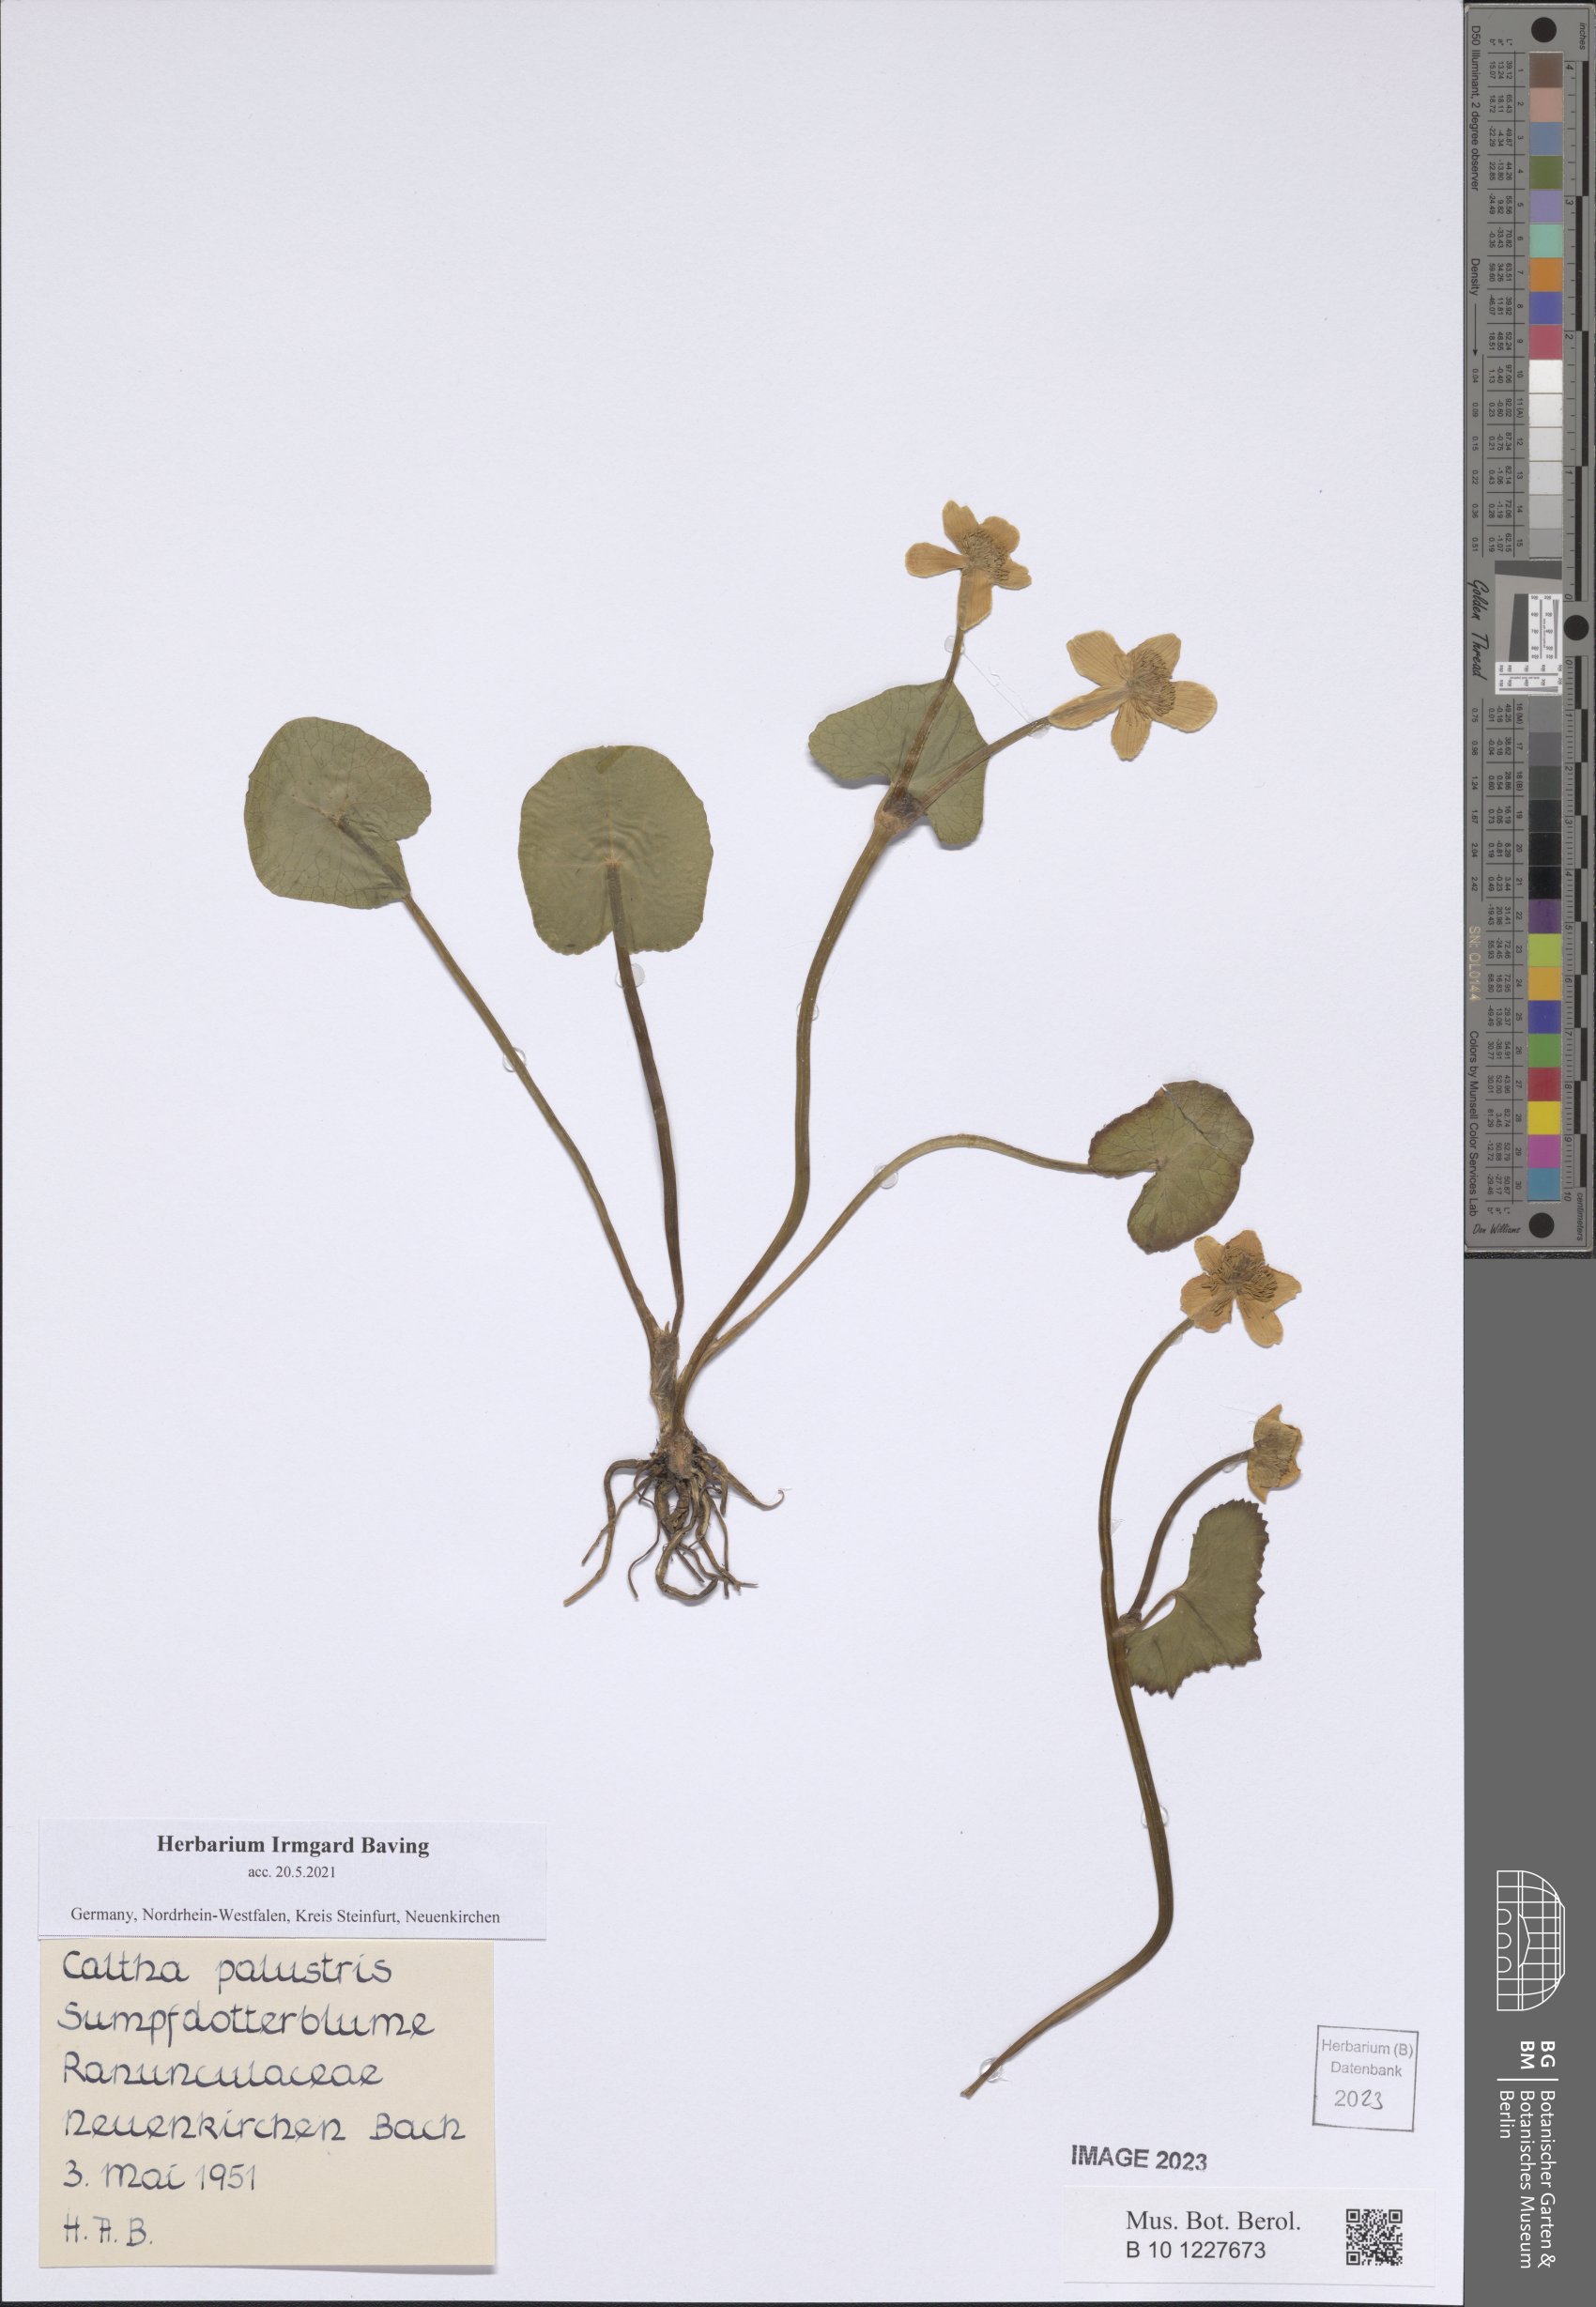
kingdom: Plantae
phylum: Tracheophyta
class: Magnoliopsida
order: Ranunculales
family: Ranunculaceae
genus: Caltha
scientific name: Caltha palustris
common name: Marsh marigold
